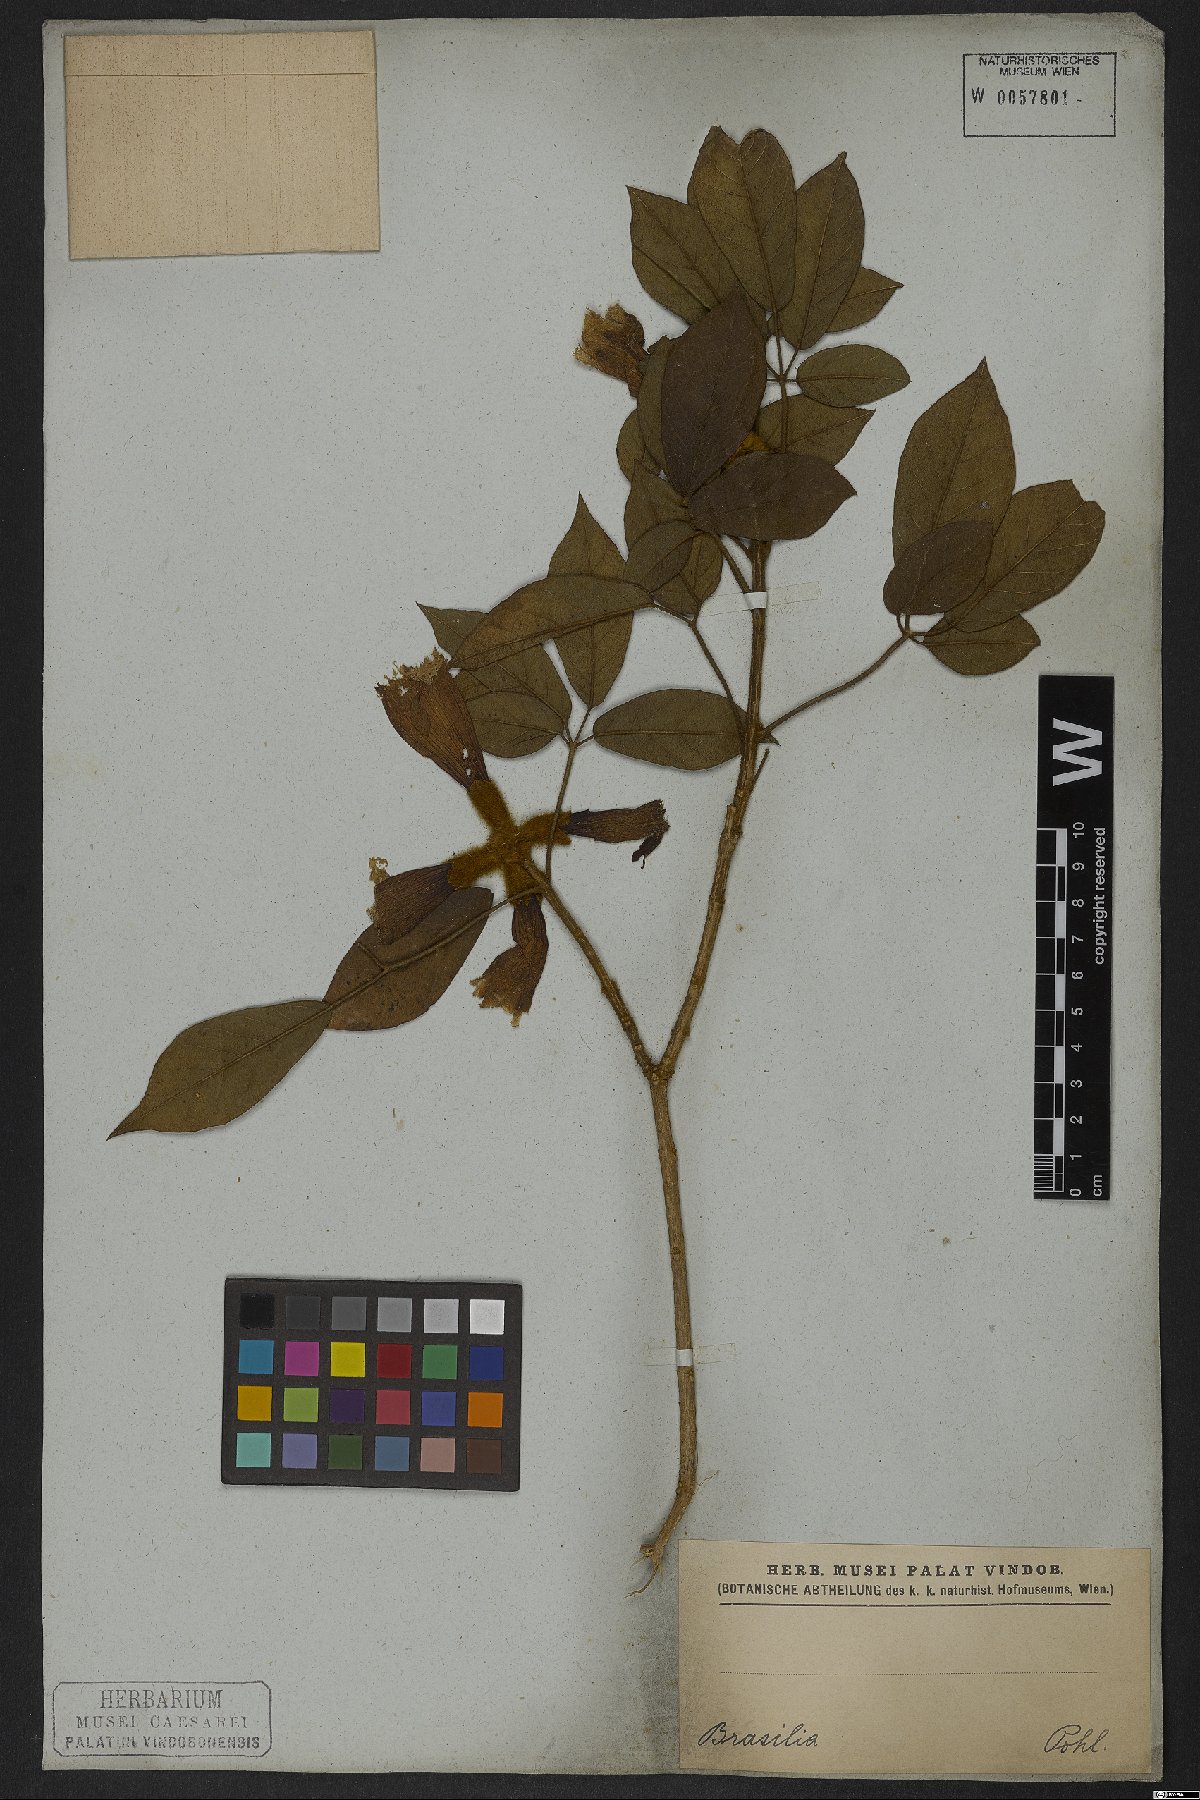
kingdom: Plantae
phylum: Tracheophyta
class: Magnoliopsida
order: Lamiales
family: Bignoniaceae
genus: Handroanthus
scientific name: Handroanthus chrysotrichus
